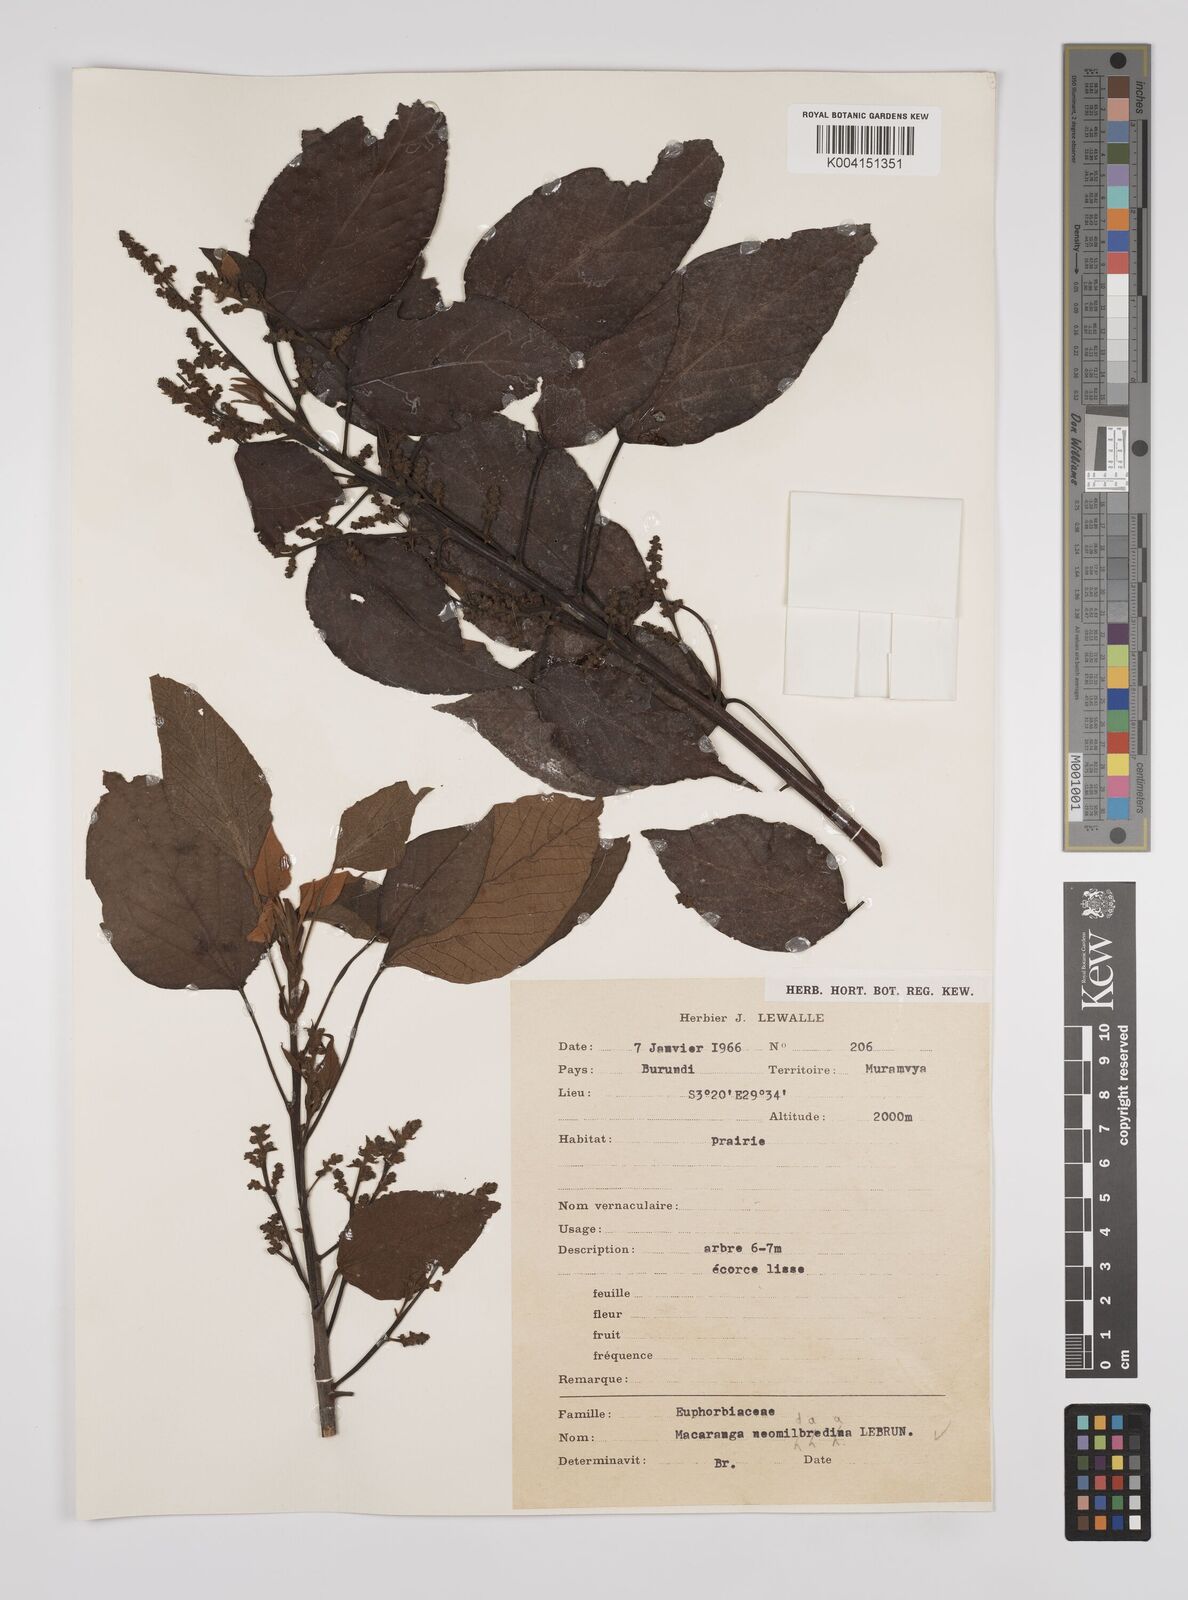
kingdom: Plantae
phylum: Tracheophyta
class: Magnoliopsida
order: Malpighiales
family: Euphorbiaceae
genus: Macaranga
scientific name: Macaranga kilimandscharica
